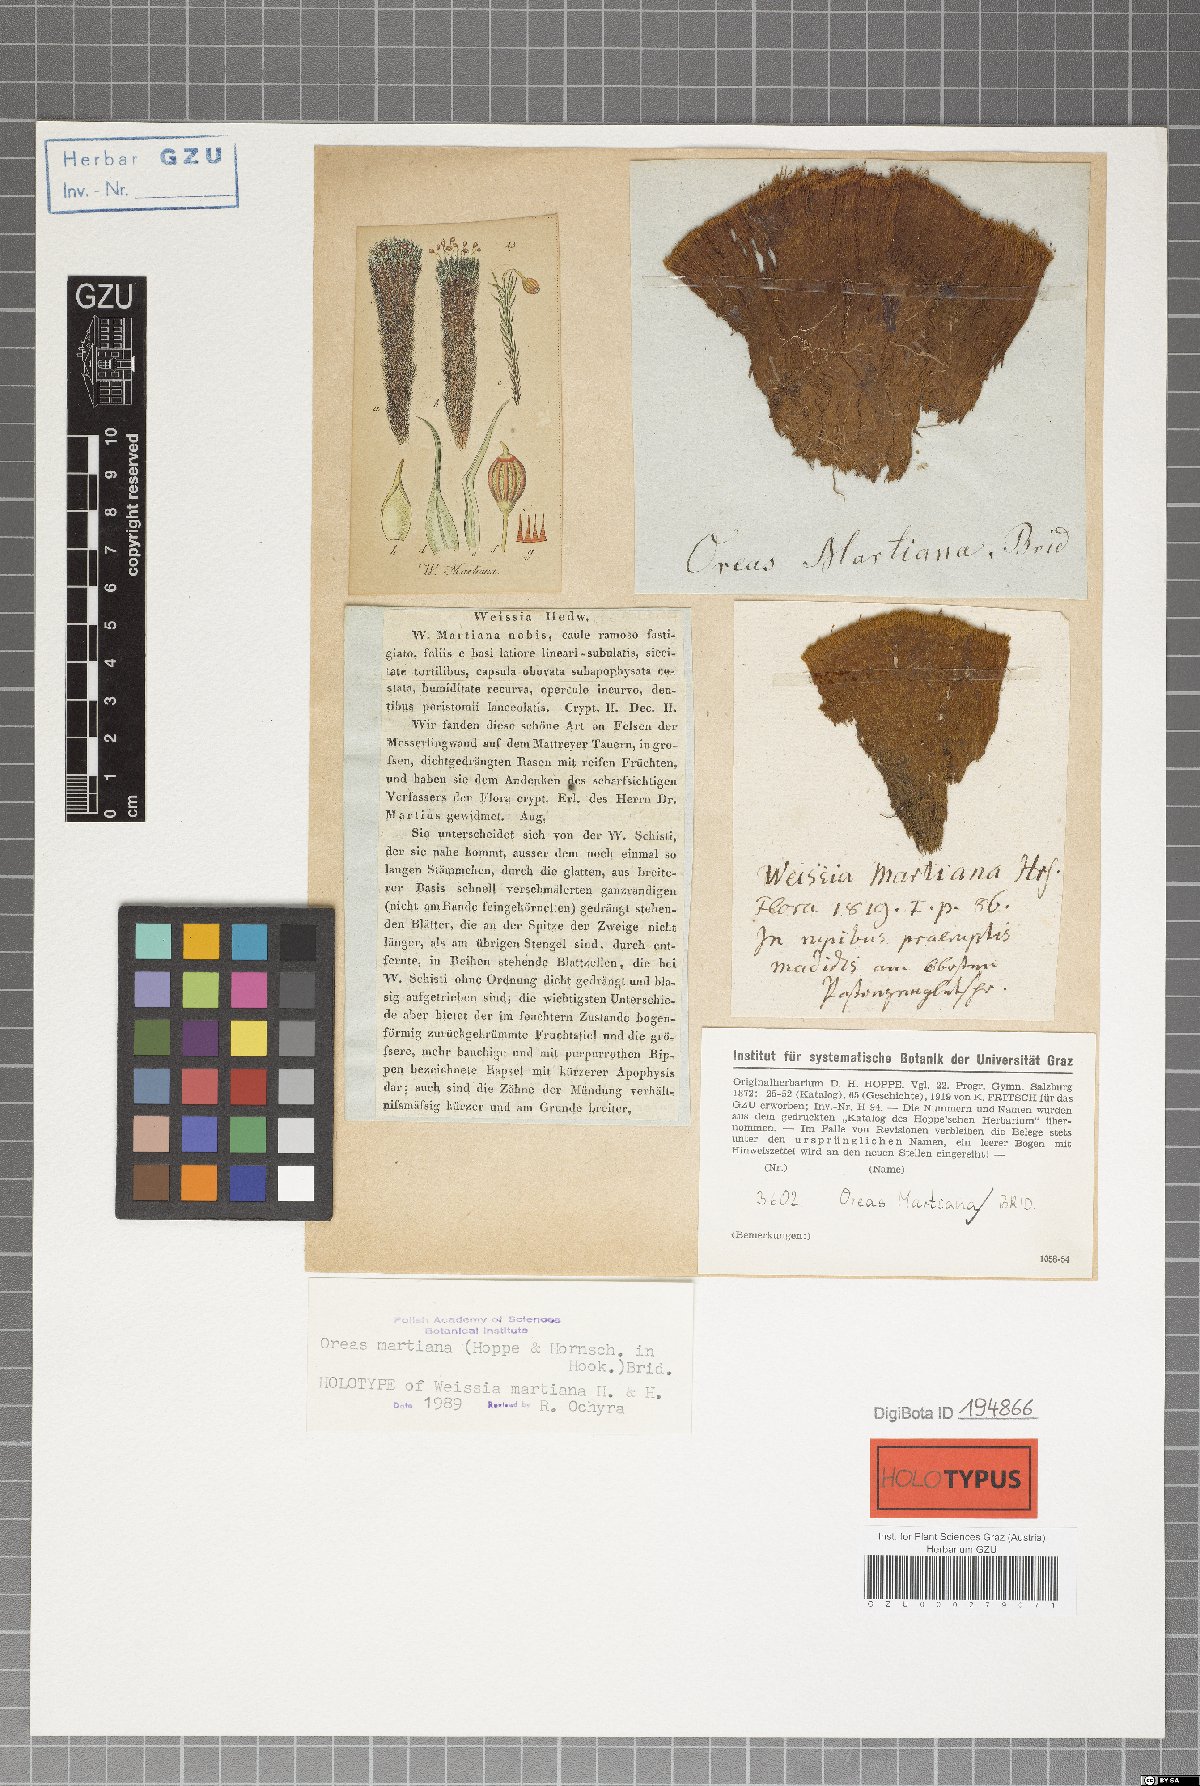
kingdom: Plantae
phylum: Bryophyta
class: Bryopsida
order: Dicranales
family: Rhabdoweisiaceae
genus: Oreas
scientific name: Oreas martiana
